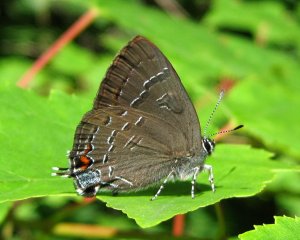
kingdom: Animalia
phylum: Arthropoda
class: Insecta
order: Lepidoptera
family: Lycaenidae
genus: Satyrium
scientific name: Satyrium calanus
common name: Banded Hairstreak
